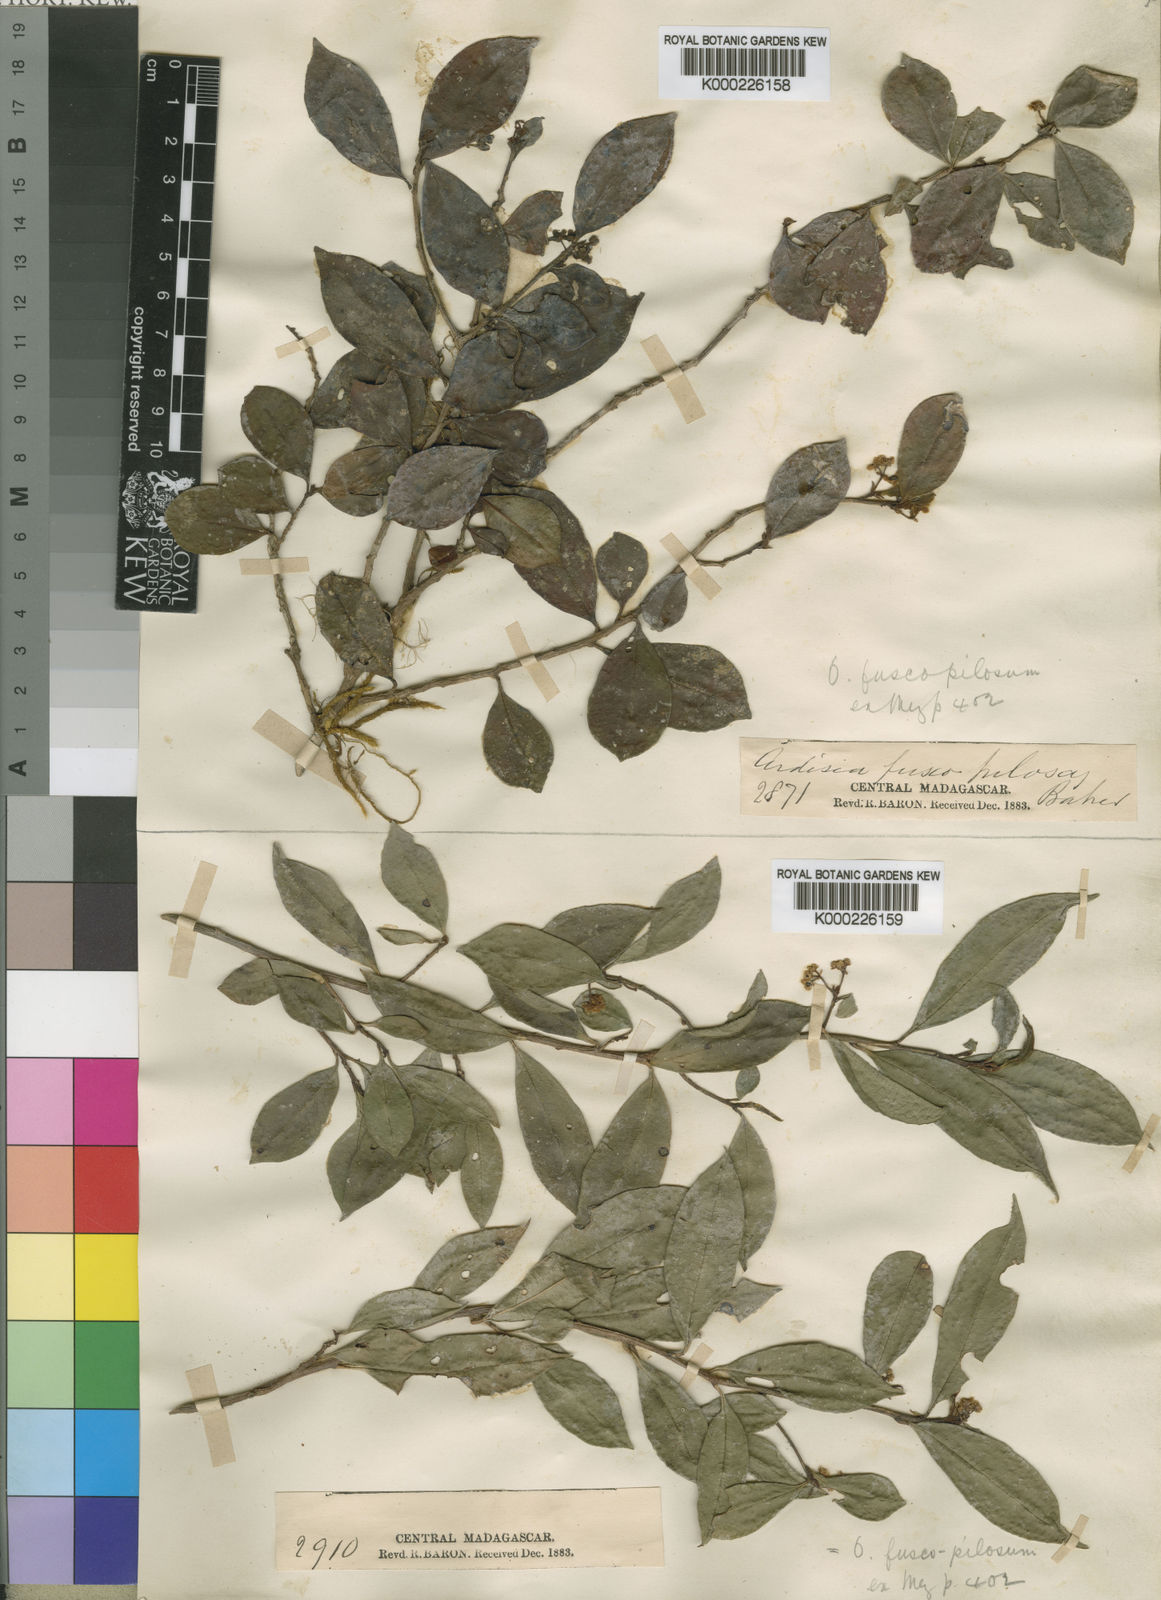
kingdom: Plantae
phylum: Tracheophyta
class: Magnoliopsida
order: Ericales
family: Primulaceae
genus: Oncostemum
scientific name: Oncostemum fuscopilosum
